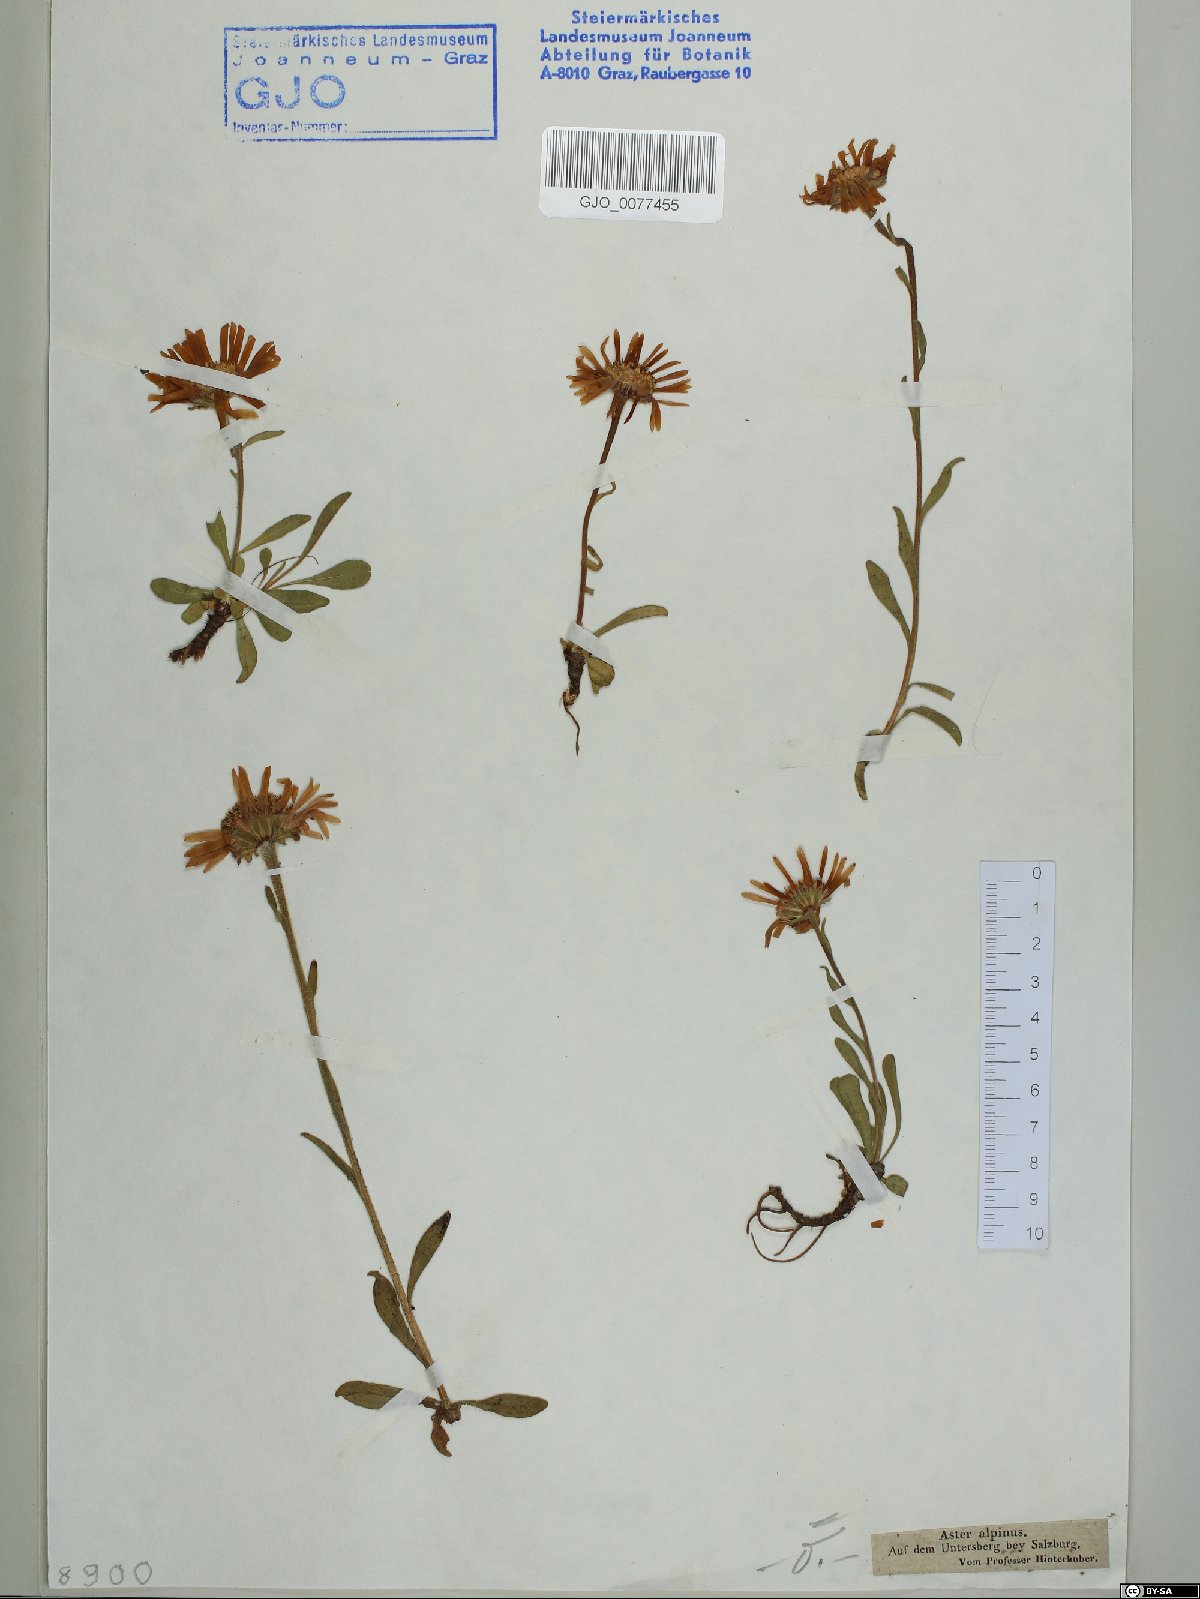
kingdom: Plantae
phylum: Tracheophyta
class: Magnoliopsida
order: Asterales
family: Asteraceae
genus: Aster
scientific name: Aster alpinus
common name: Alpine aster
